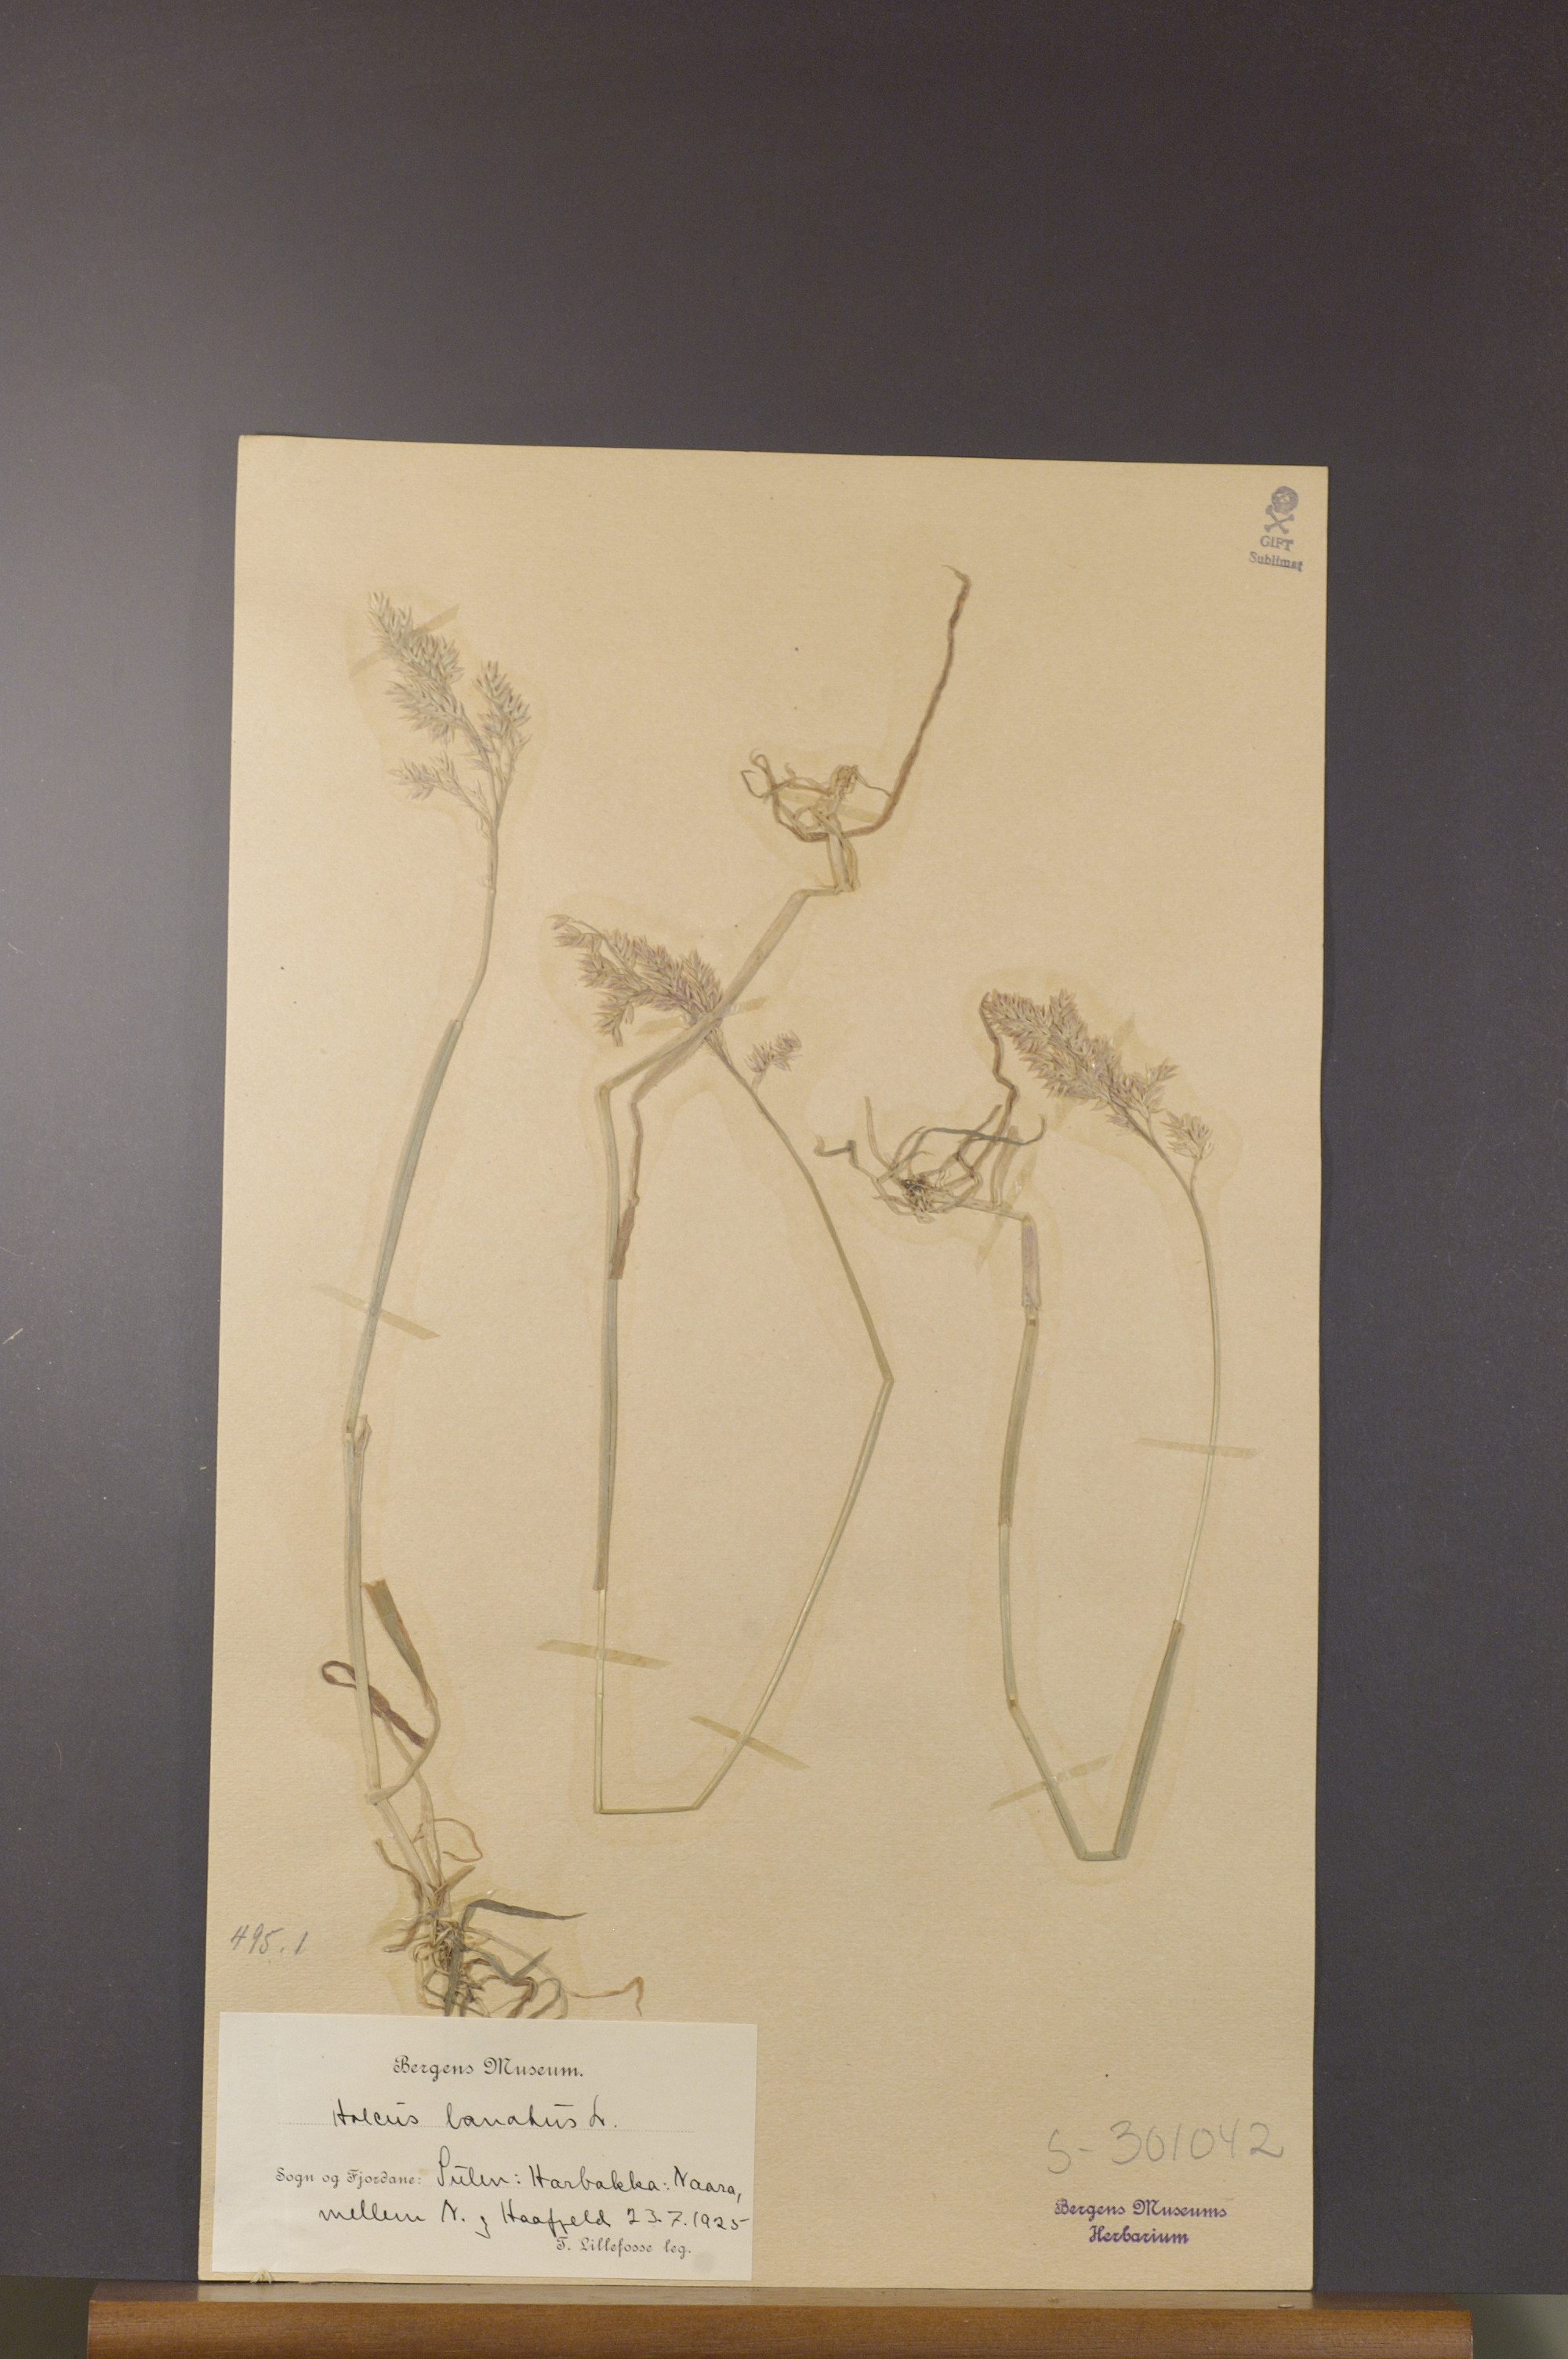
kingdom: Plantae
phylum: Tracheophyta
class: Liliopsida
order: Poales
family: Poaceae
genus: Holcus
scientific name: Holcus lanatus
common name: Yorkshire-fog
